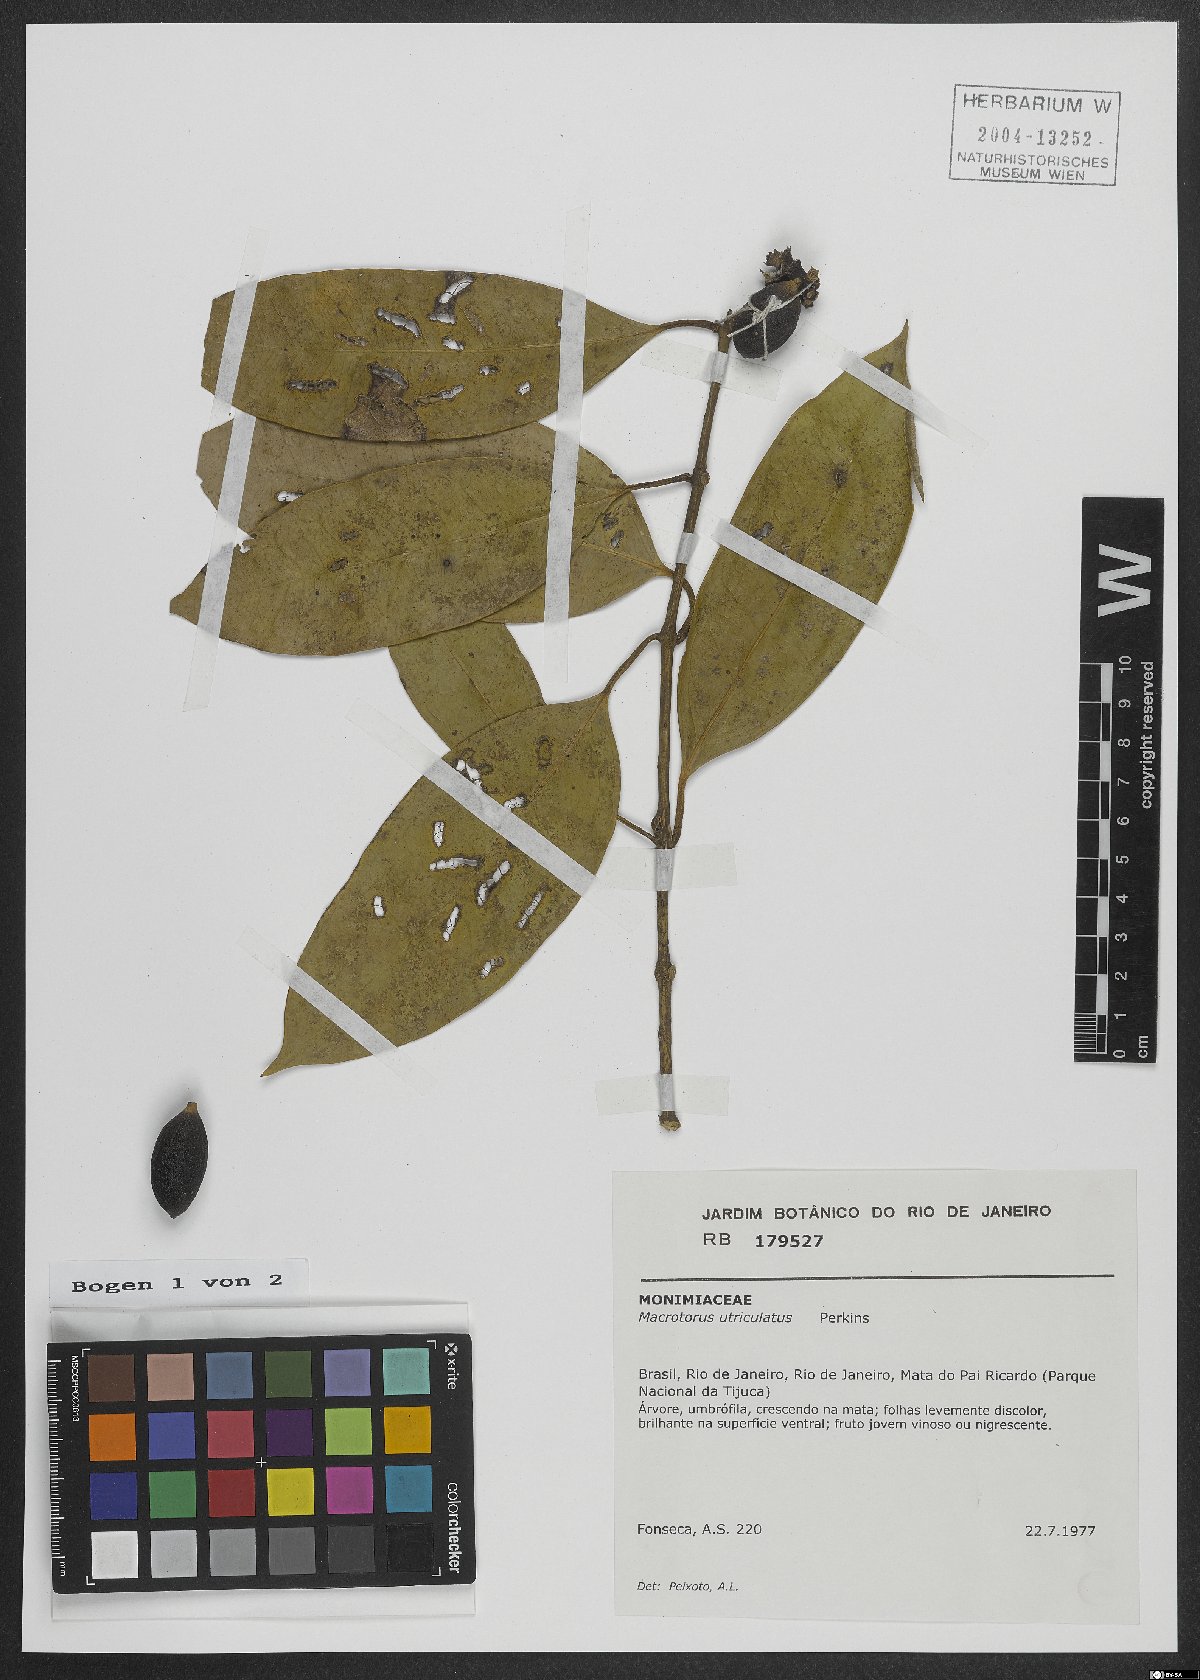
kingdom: Plantae
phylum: Tracheophyta
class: Magnoliopsida
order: Laurales
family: Monimiaceae
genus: Macrotorus
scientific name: Macrotorus utriculatus
